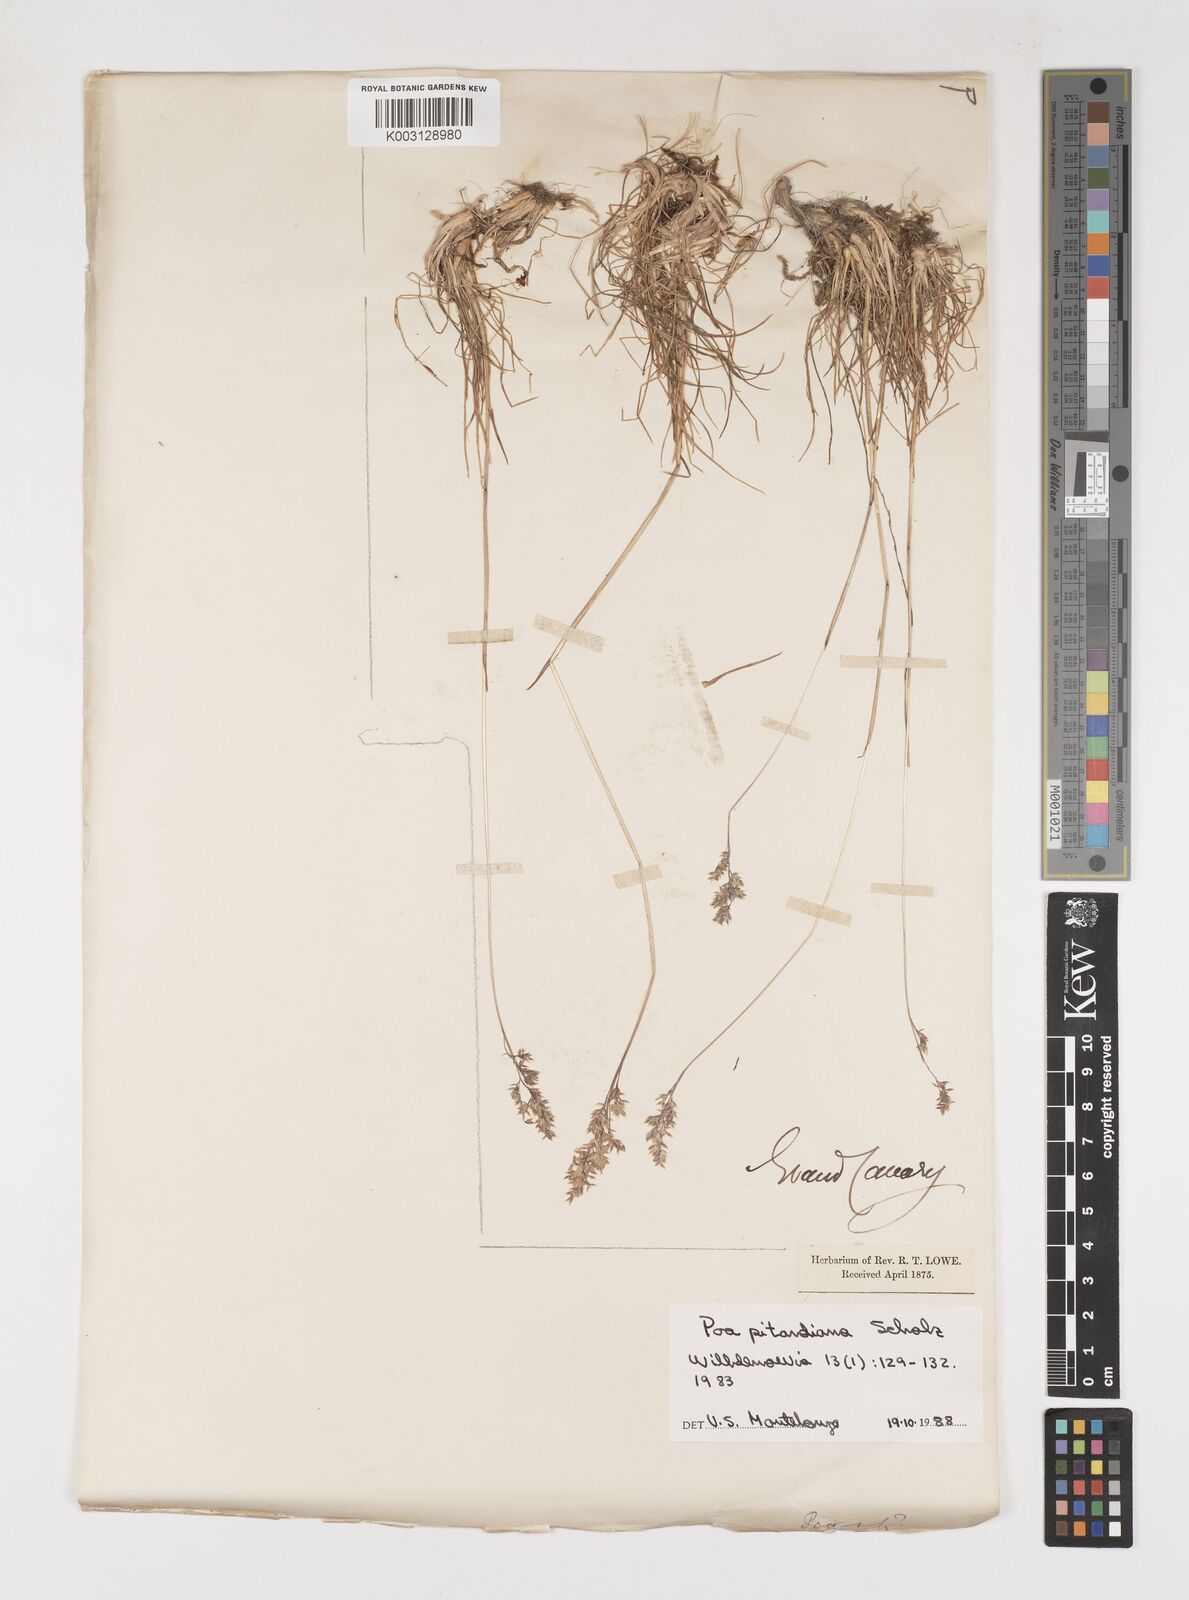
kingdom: Plantae
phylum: Tracheophyta
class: Liliopsida
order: Poales
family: Poaceae
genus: Poa
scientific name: Poa pitardiana
